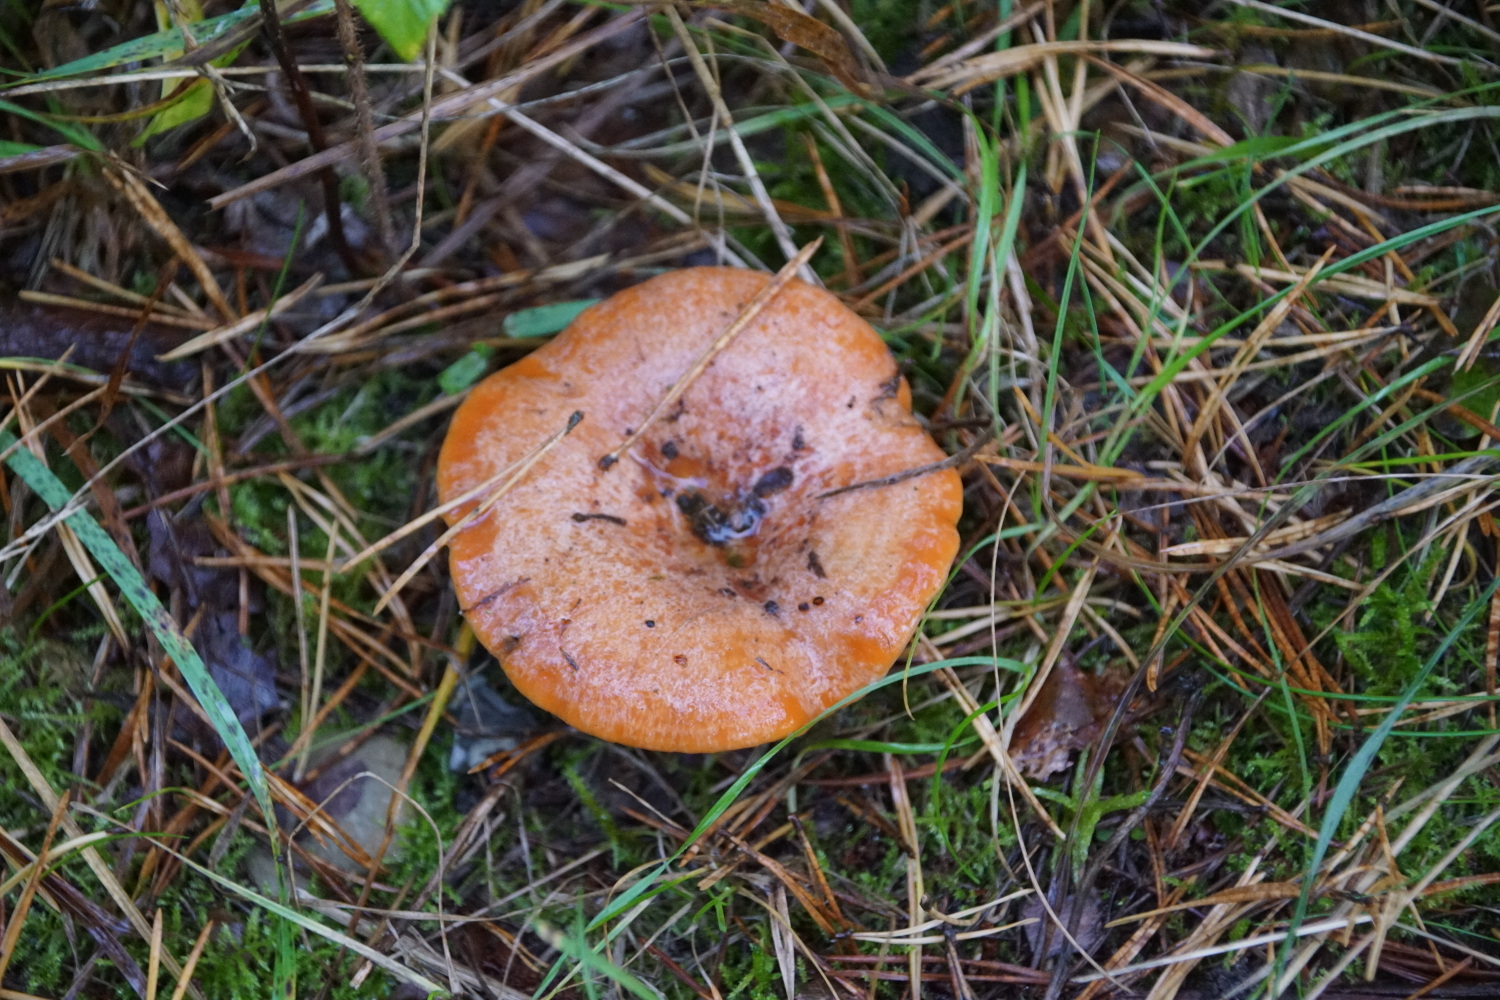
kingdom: Fungi
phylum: Basidiomycota
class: Agaricomycetes
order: Russulales
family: Russulaceae
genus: Lactarius
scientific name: Lactarius deliciosus
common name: velsmagende mælkehat
